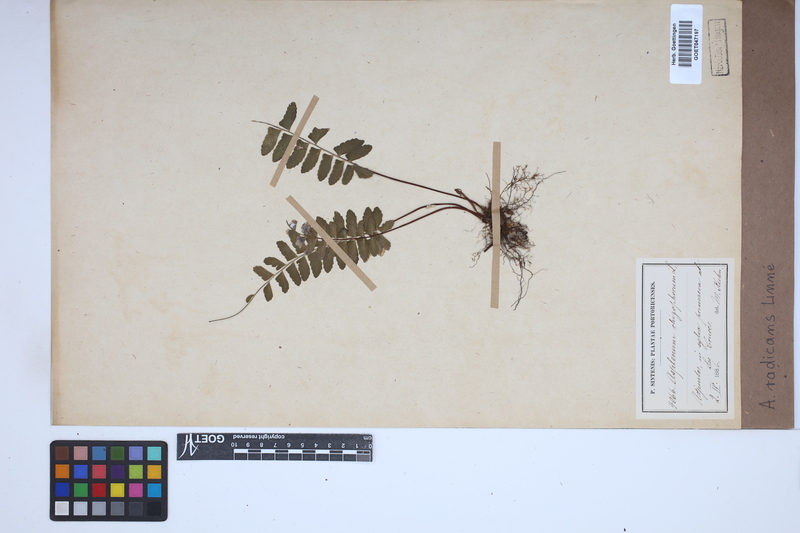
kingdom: Plantae
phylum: Tracheophyta
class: Polypodiopsida
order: Polypodiales
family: Aspleniaceae
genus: Asplenium
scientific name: Asplenium radicans
